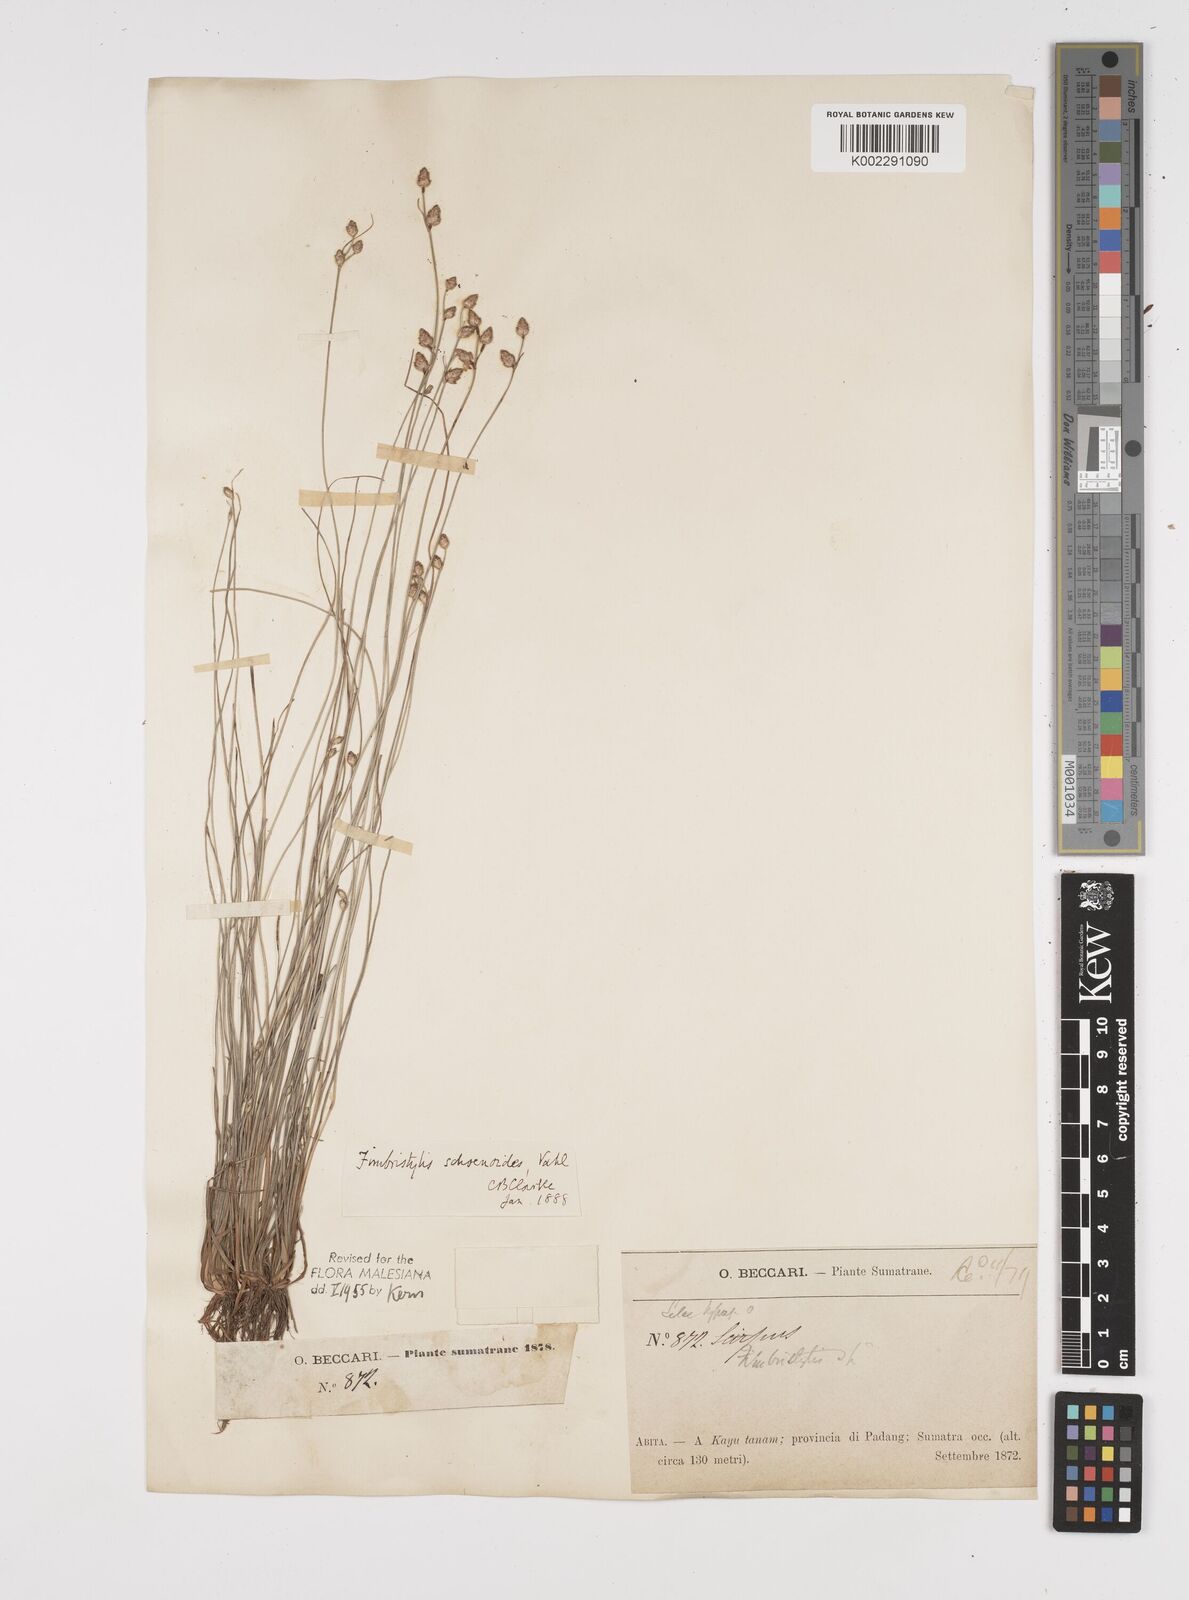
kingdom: Plantae
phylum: Tracheophyta
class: Liliopsida
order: Poales
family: Cyperaceae
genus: Fimbristylis
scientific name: Fimbristylis schoenoides
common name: Ditch fimbry
